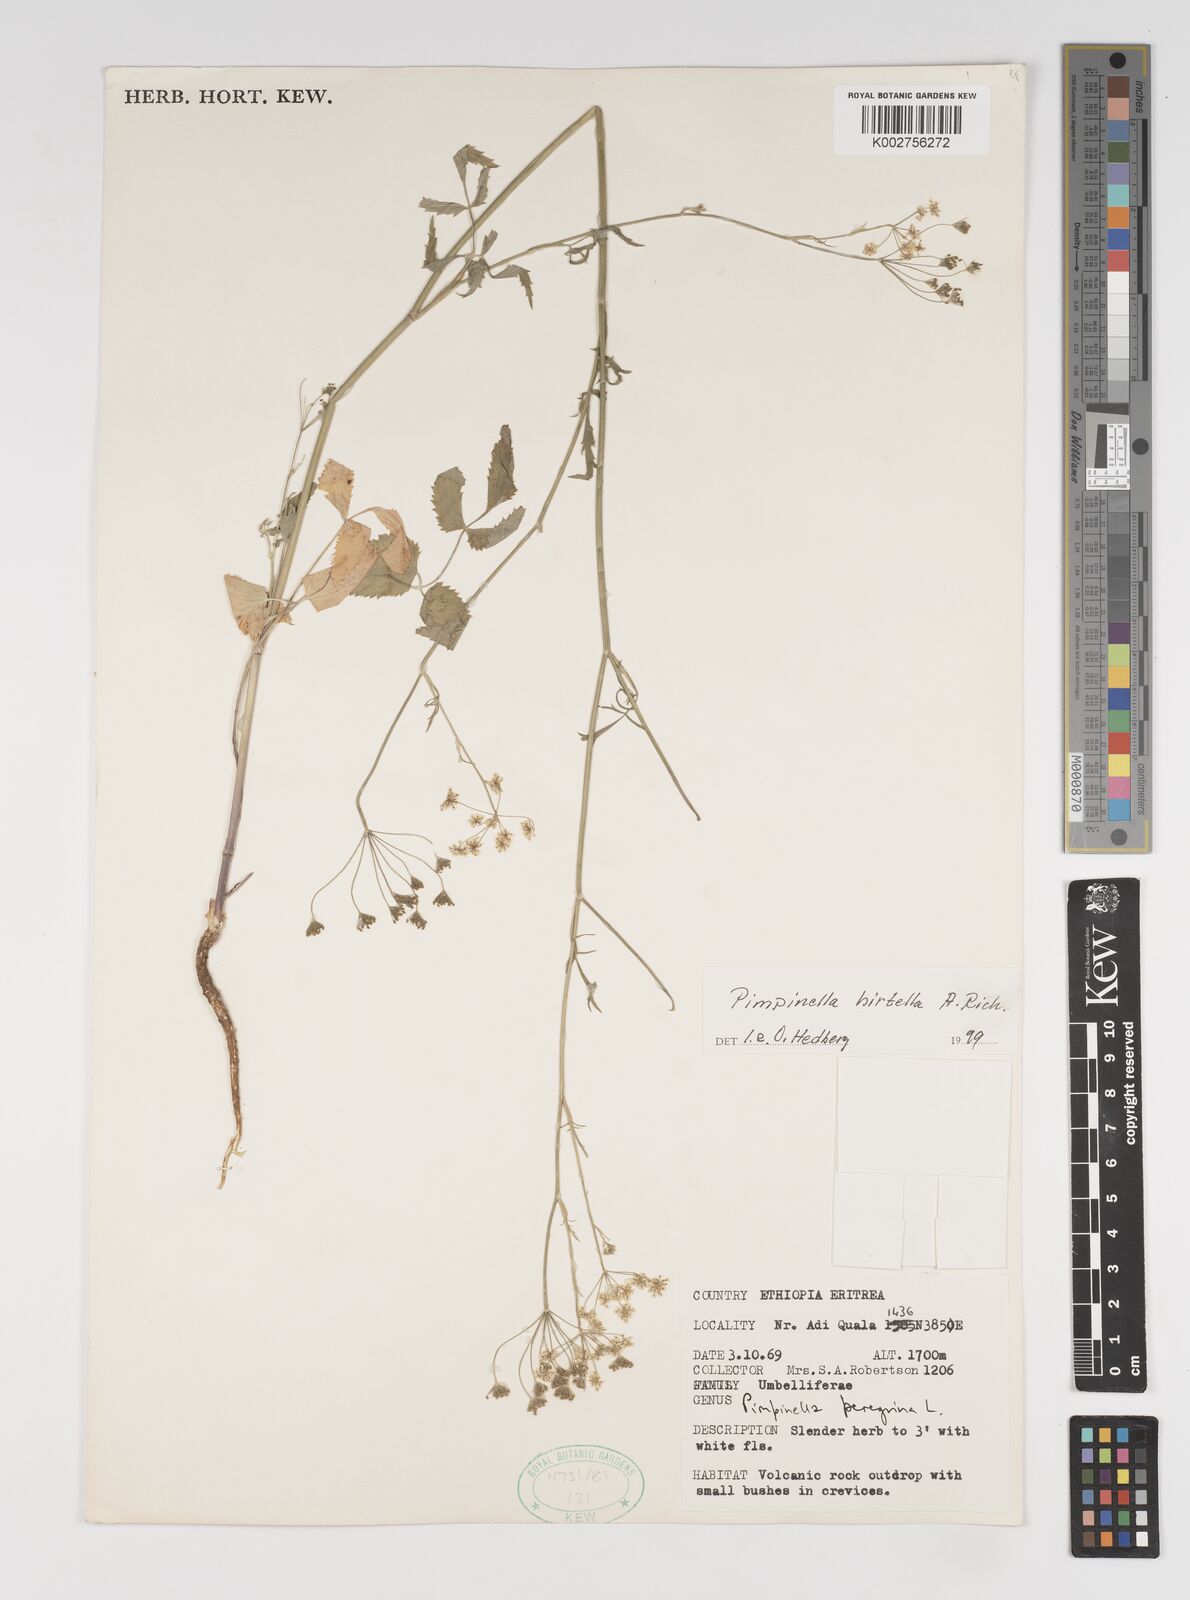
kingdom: Plantae
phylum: Tracheophyta
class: Magnoliopsida
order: Apiales
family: Apiaceae
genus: Pimpinella
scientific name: Pimpinella hirtella
